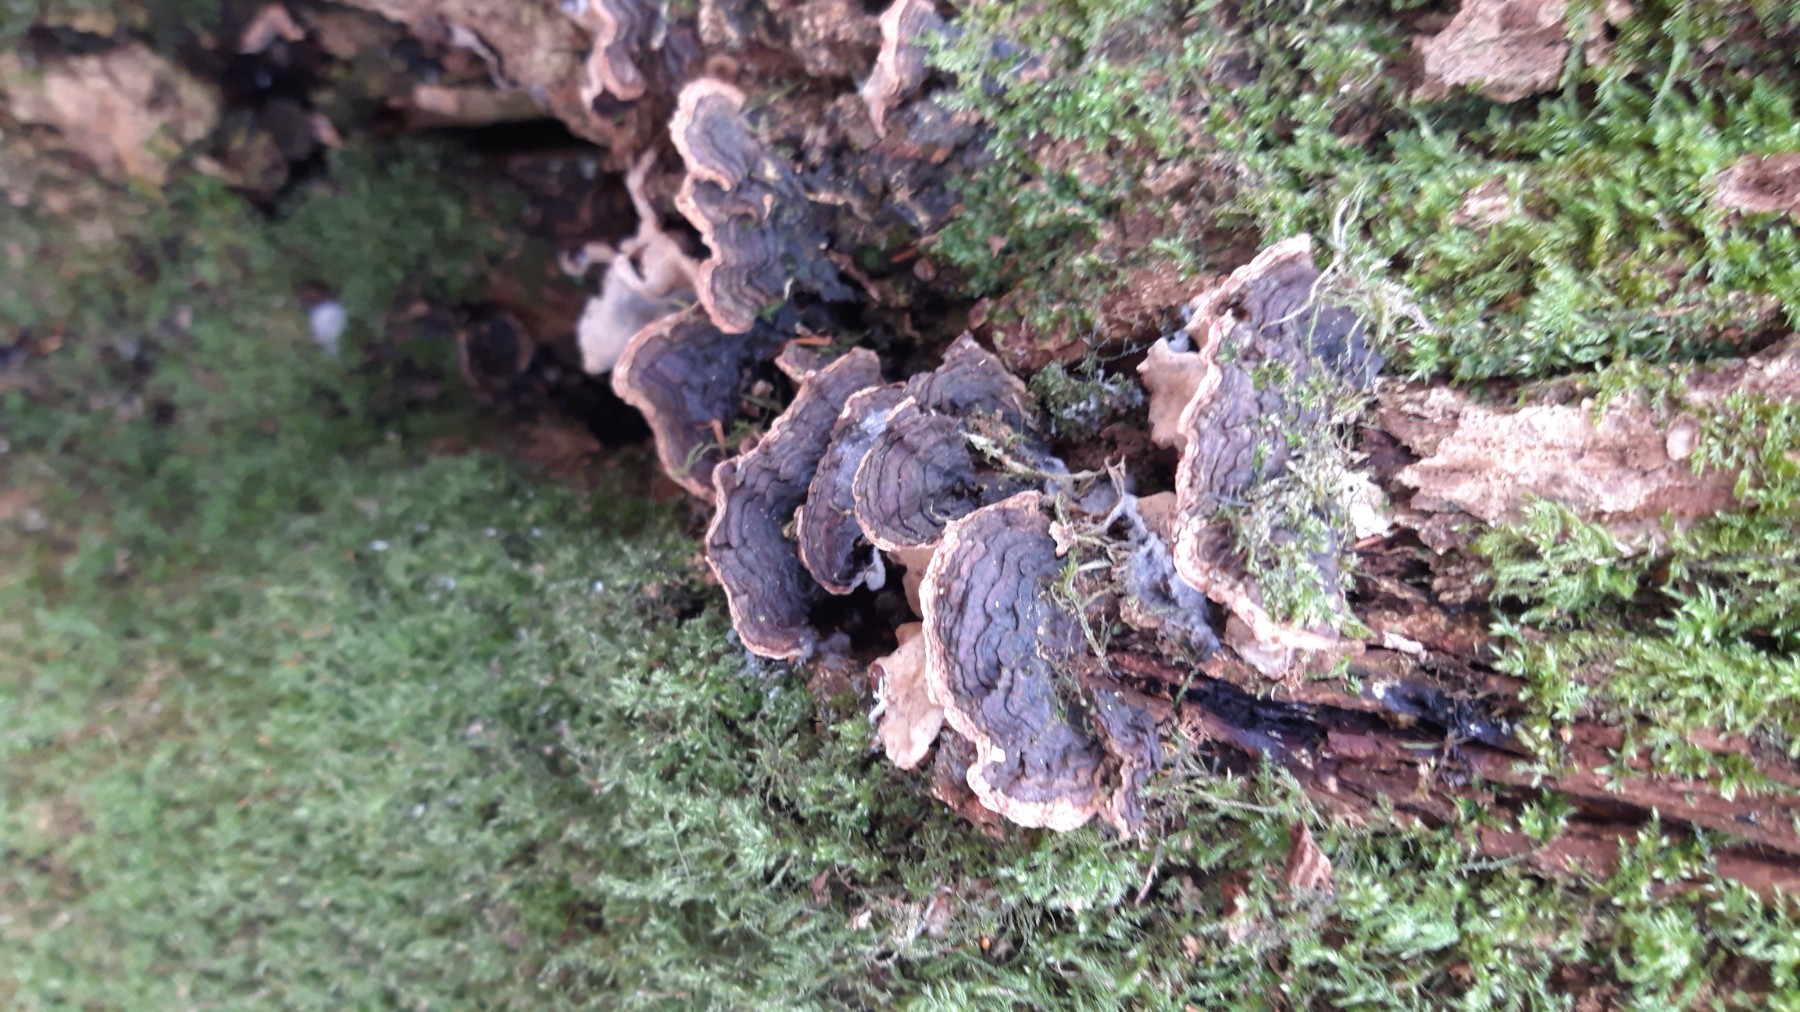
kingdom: Fungi
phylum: Basidiomycota
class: Agaricomycetes
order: Hymenochaetales
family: Hymenochaetaceae
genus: Hymenochaete
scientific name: Hymenochaete rubiginosa
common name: stiv ruslædersvamp
